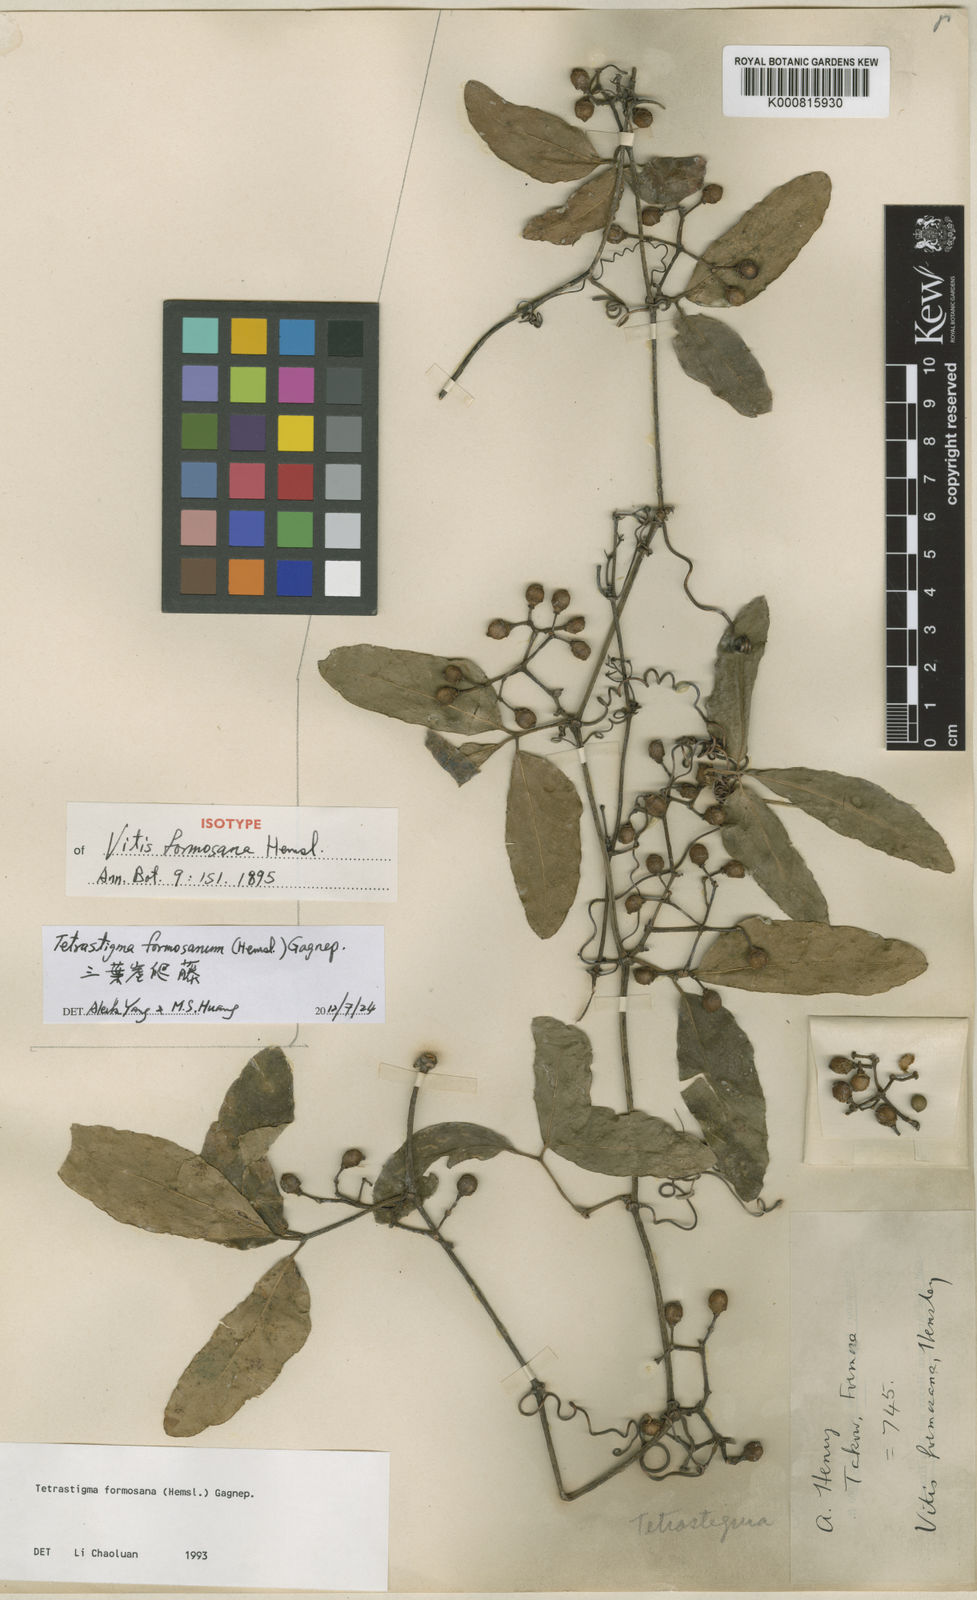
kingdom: Plantae
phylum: Tracheophyta
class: Magnoliopsida
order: Vitales
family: Vitaceae
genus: Tetrastigma
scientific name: Tetrastigma formosanum
